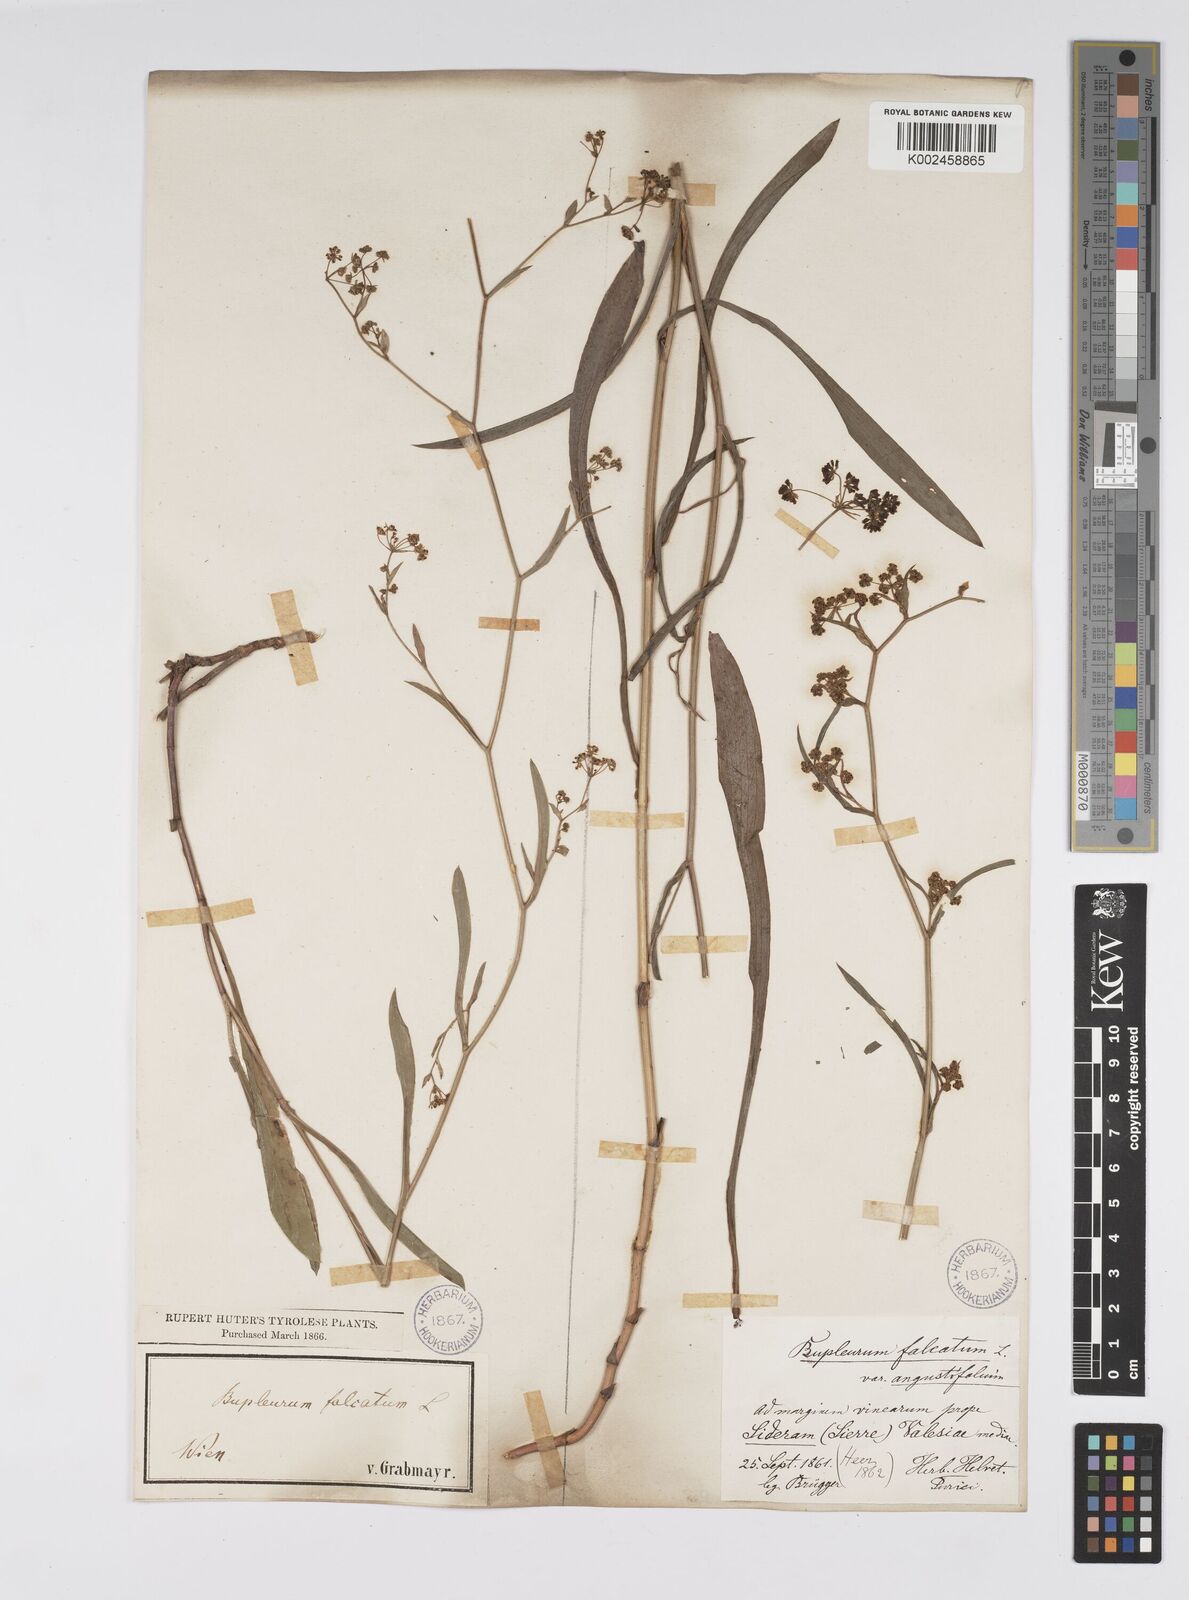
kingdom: Plantae
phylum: Tracheophyta
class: Magnoliopsida
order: Apiales
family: Apiaceae
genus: Bupleurum
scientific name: Bupleurum falcatum
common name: Sickle-leaved hare's-ear
